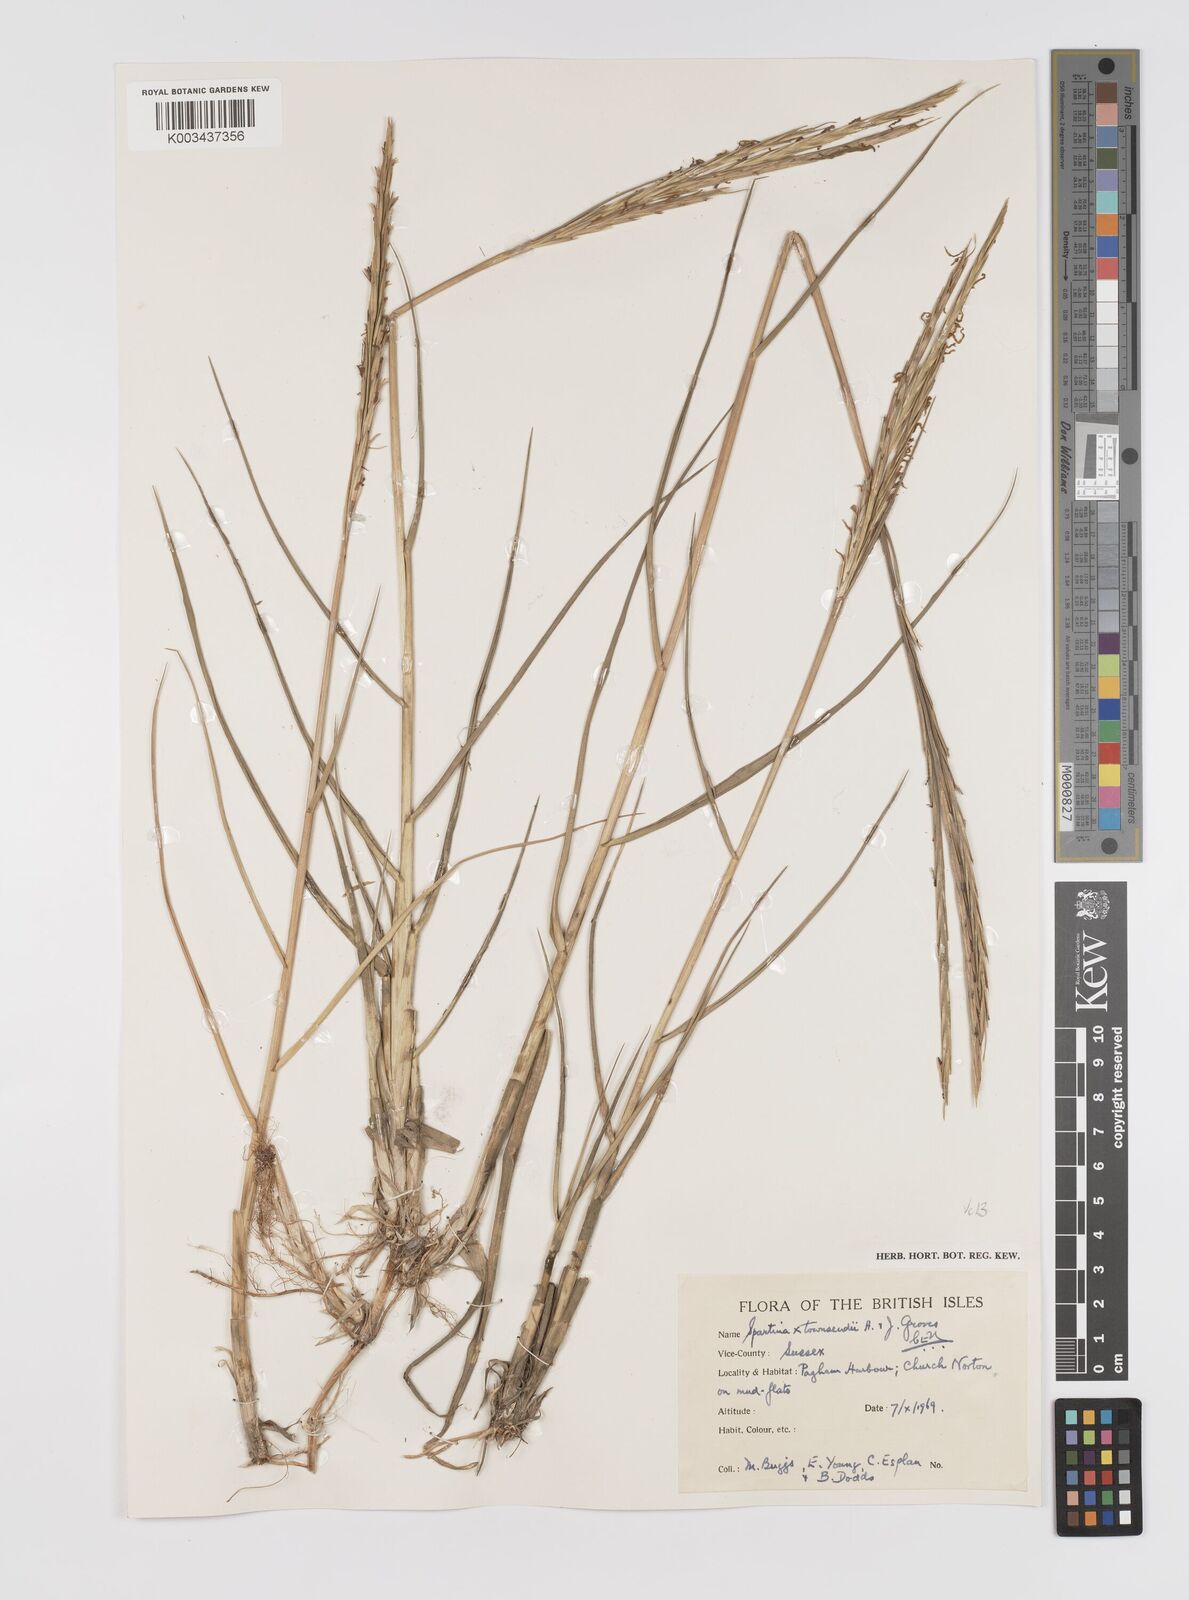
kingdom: Plantae
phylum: Tracheophyta
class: Liliopsida
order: Poales
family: Poaceae
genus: Sporobolus
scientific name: Sporobolus townsendii
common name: Townsend's cordgrass
